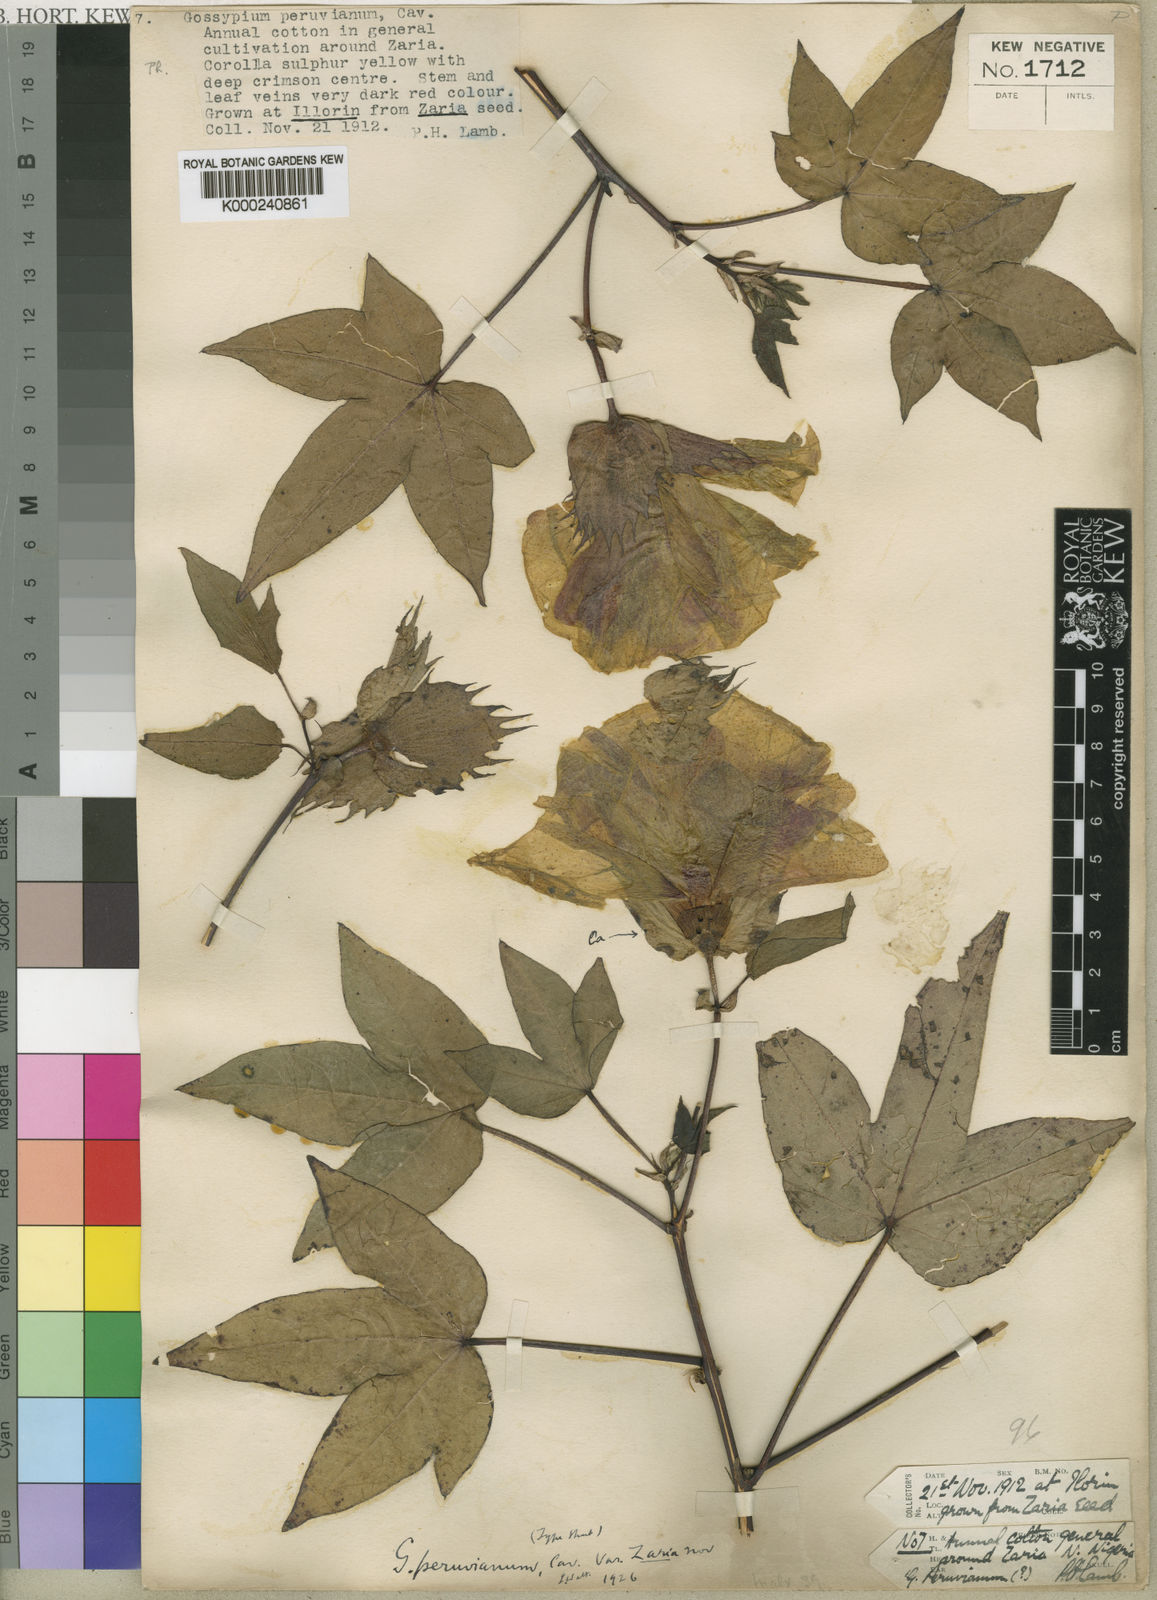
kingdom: Plantae
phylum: Tracheophyta
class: Magnoliopsida
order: Malvales
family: Malvaceae
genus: Gossypium
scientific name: Gossypium
